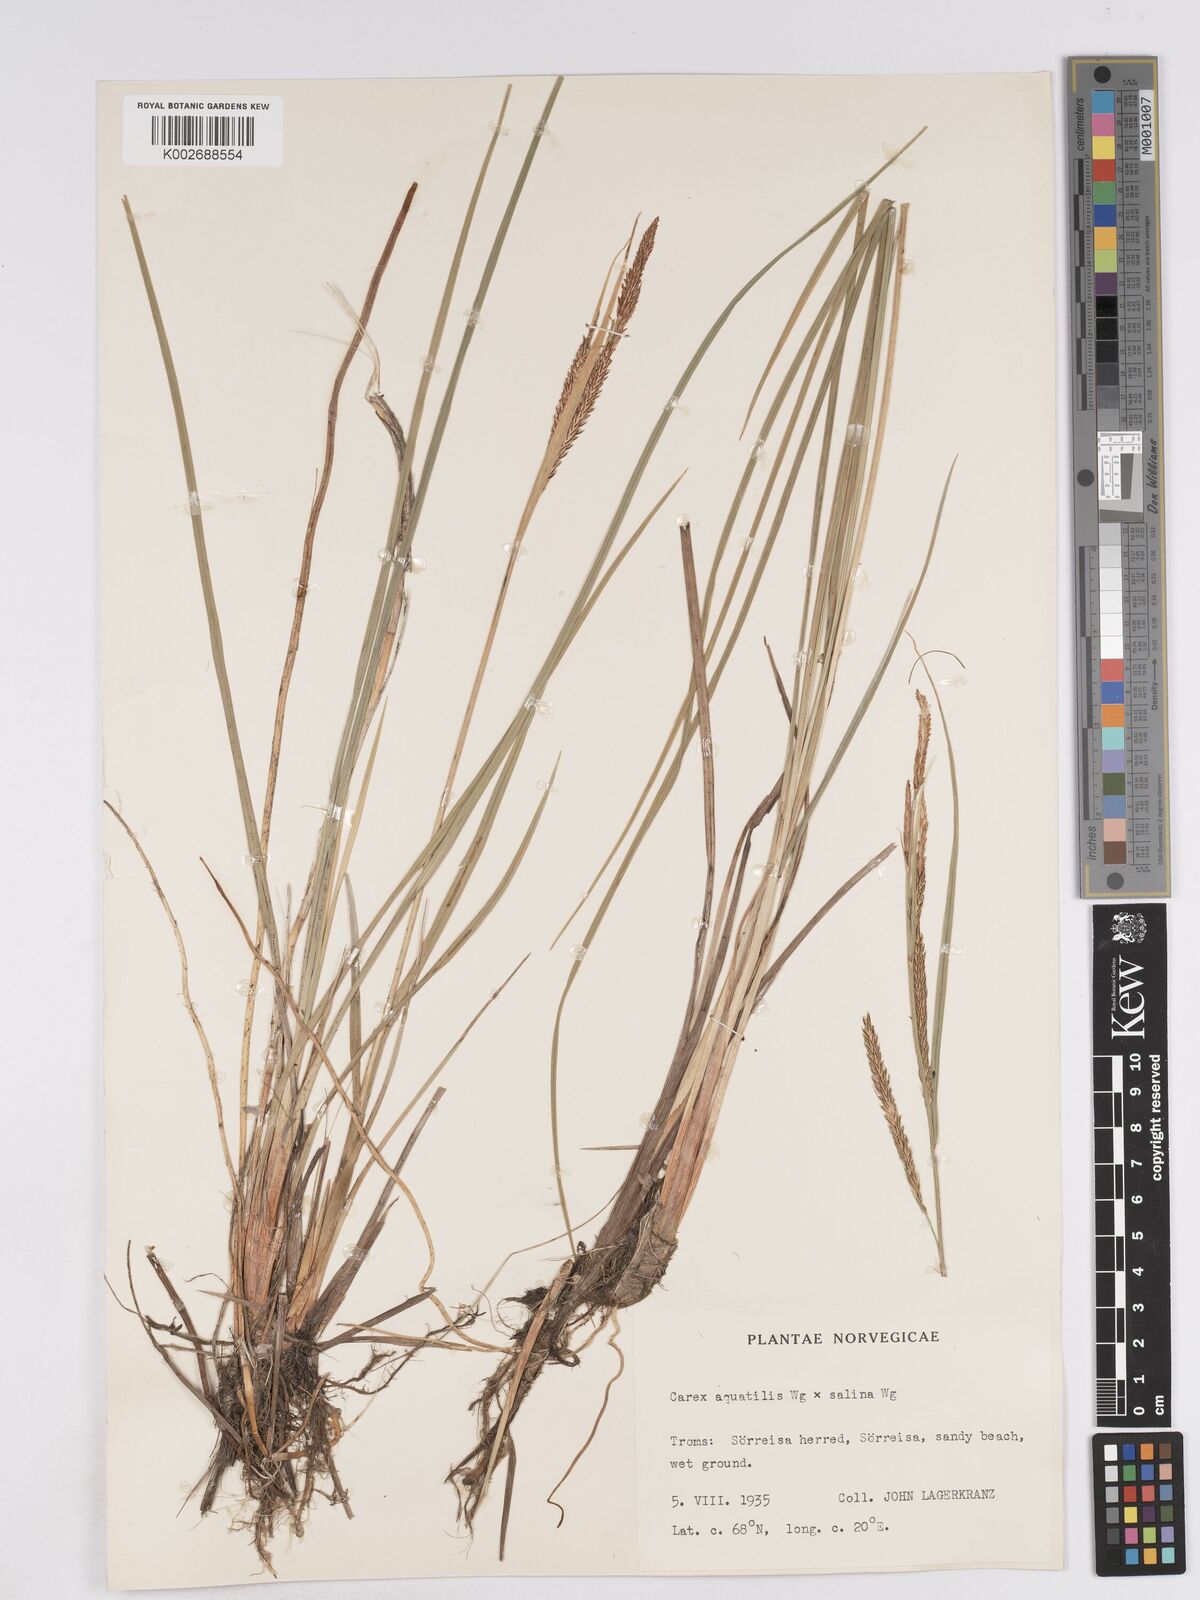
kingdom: Plantae
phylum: Tracheophyta
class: Liliopsida
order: Poales
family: Cyperaceae
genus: Carex
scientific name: Carex recta
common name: Estuarine sedge
